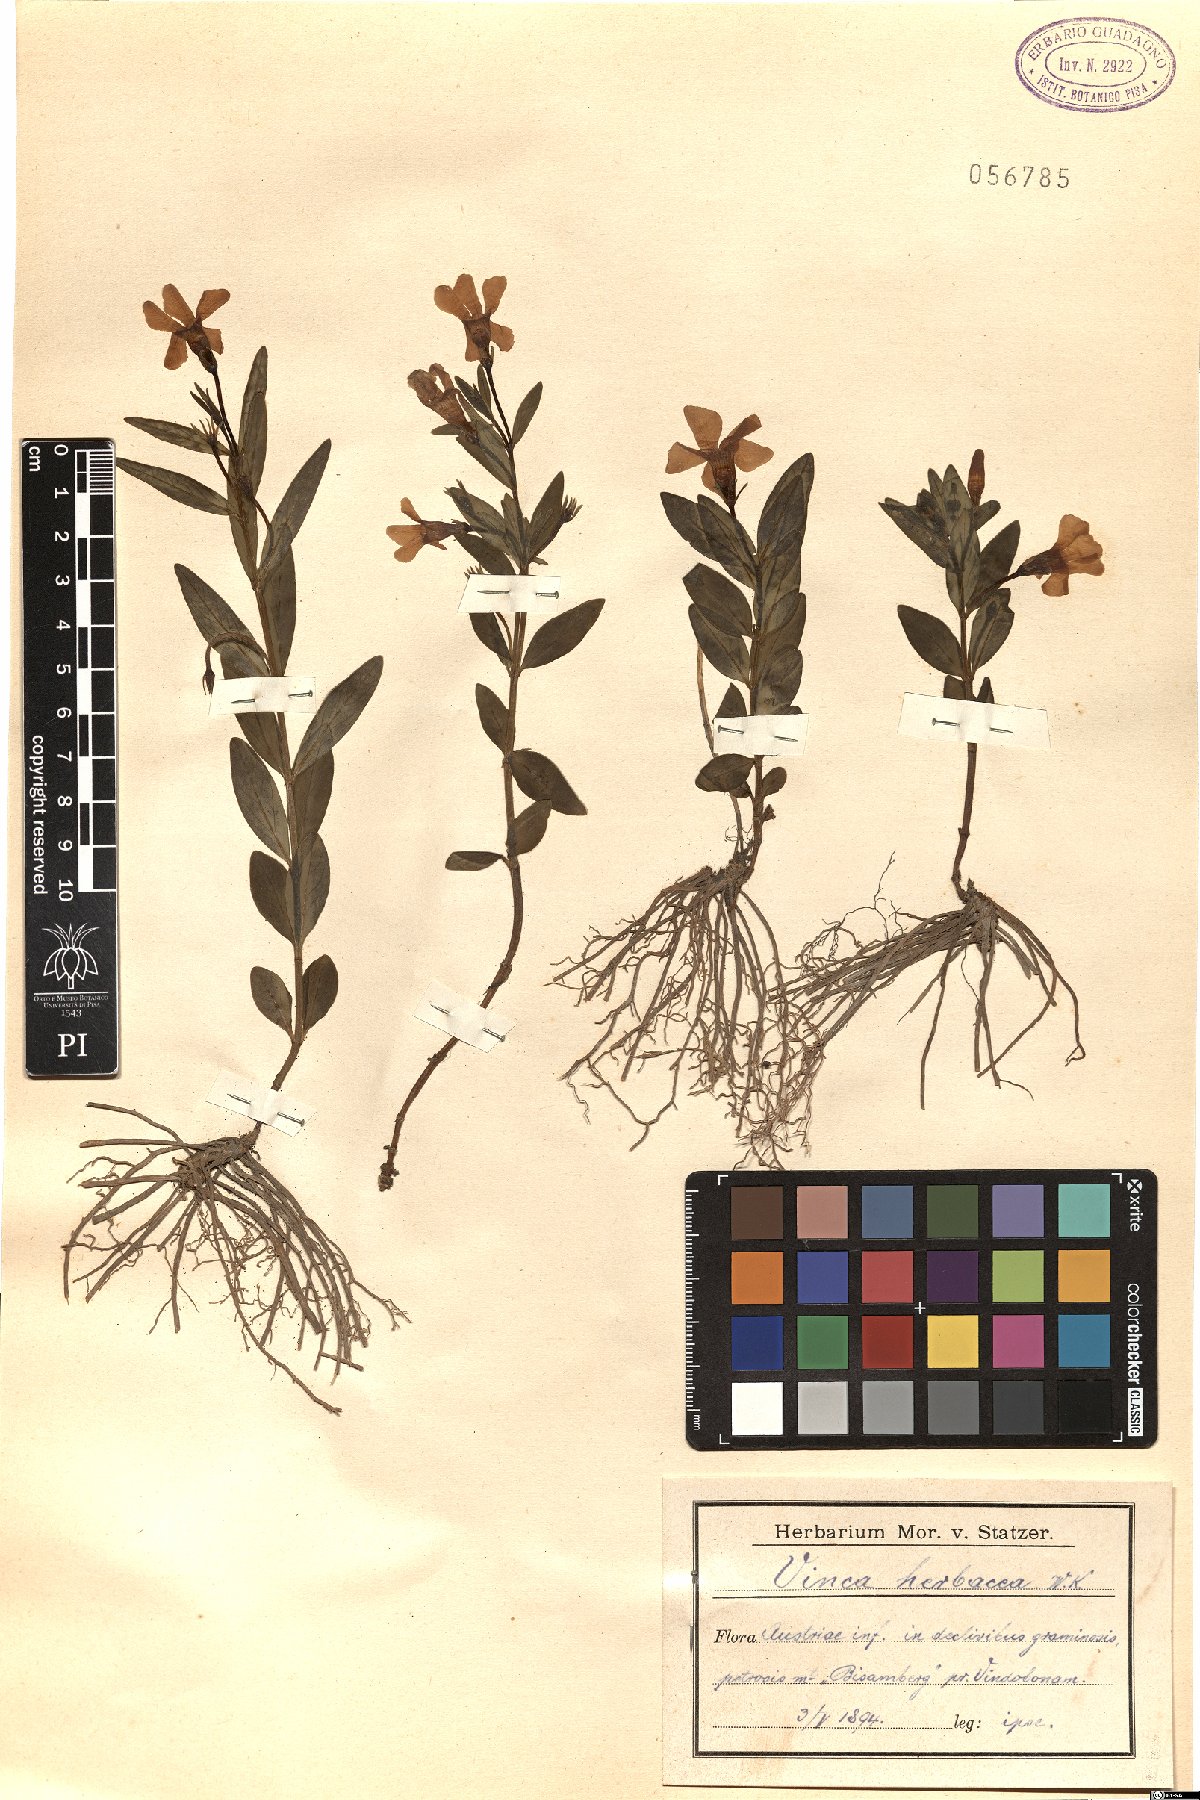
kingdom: Plantae
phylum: Tracheophyta
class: Magnoliopsida
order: Gentianales
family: Apocynaceae
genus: Vinca
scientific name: Vinca herbacea
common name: Herbaceous periwinkle
